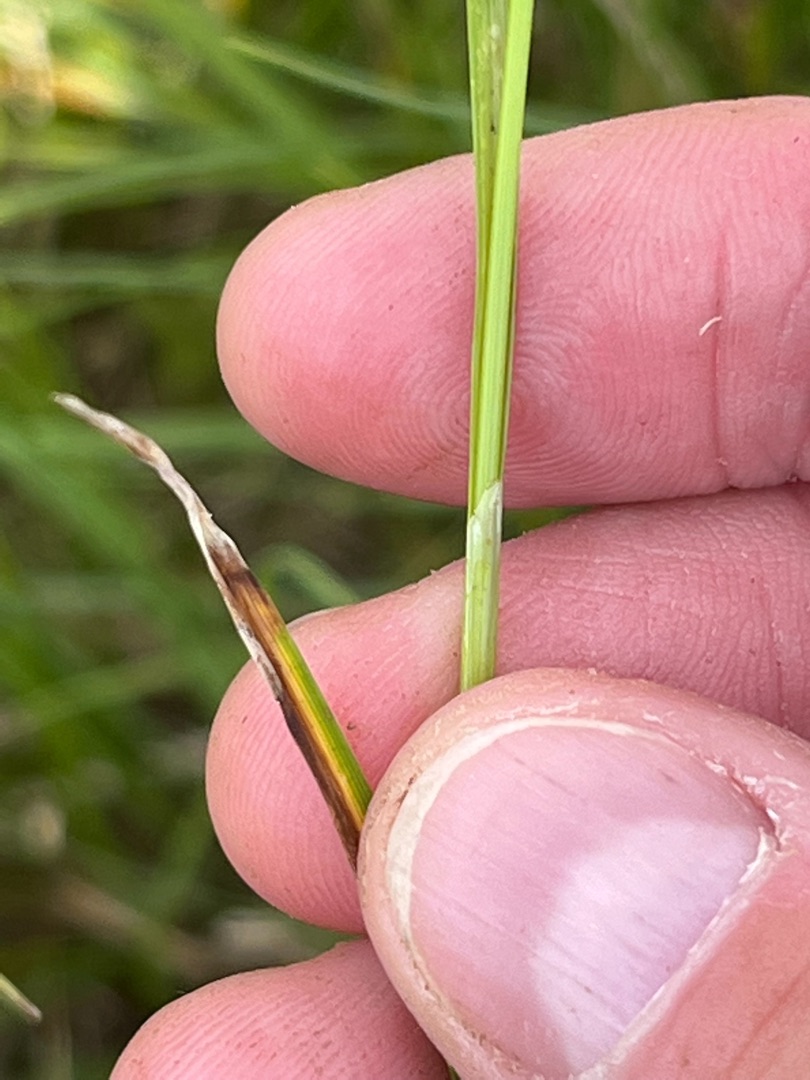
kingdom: Plantae
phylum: Tracheophyta
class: Liliopsida
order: Poales
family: Cyperaceae
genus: Carex
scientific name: Carex hostiana
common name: Skede-star
